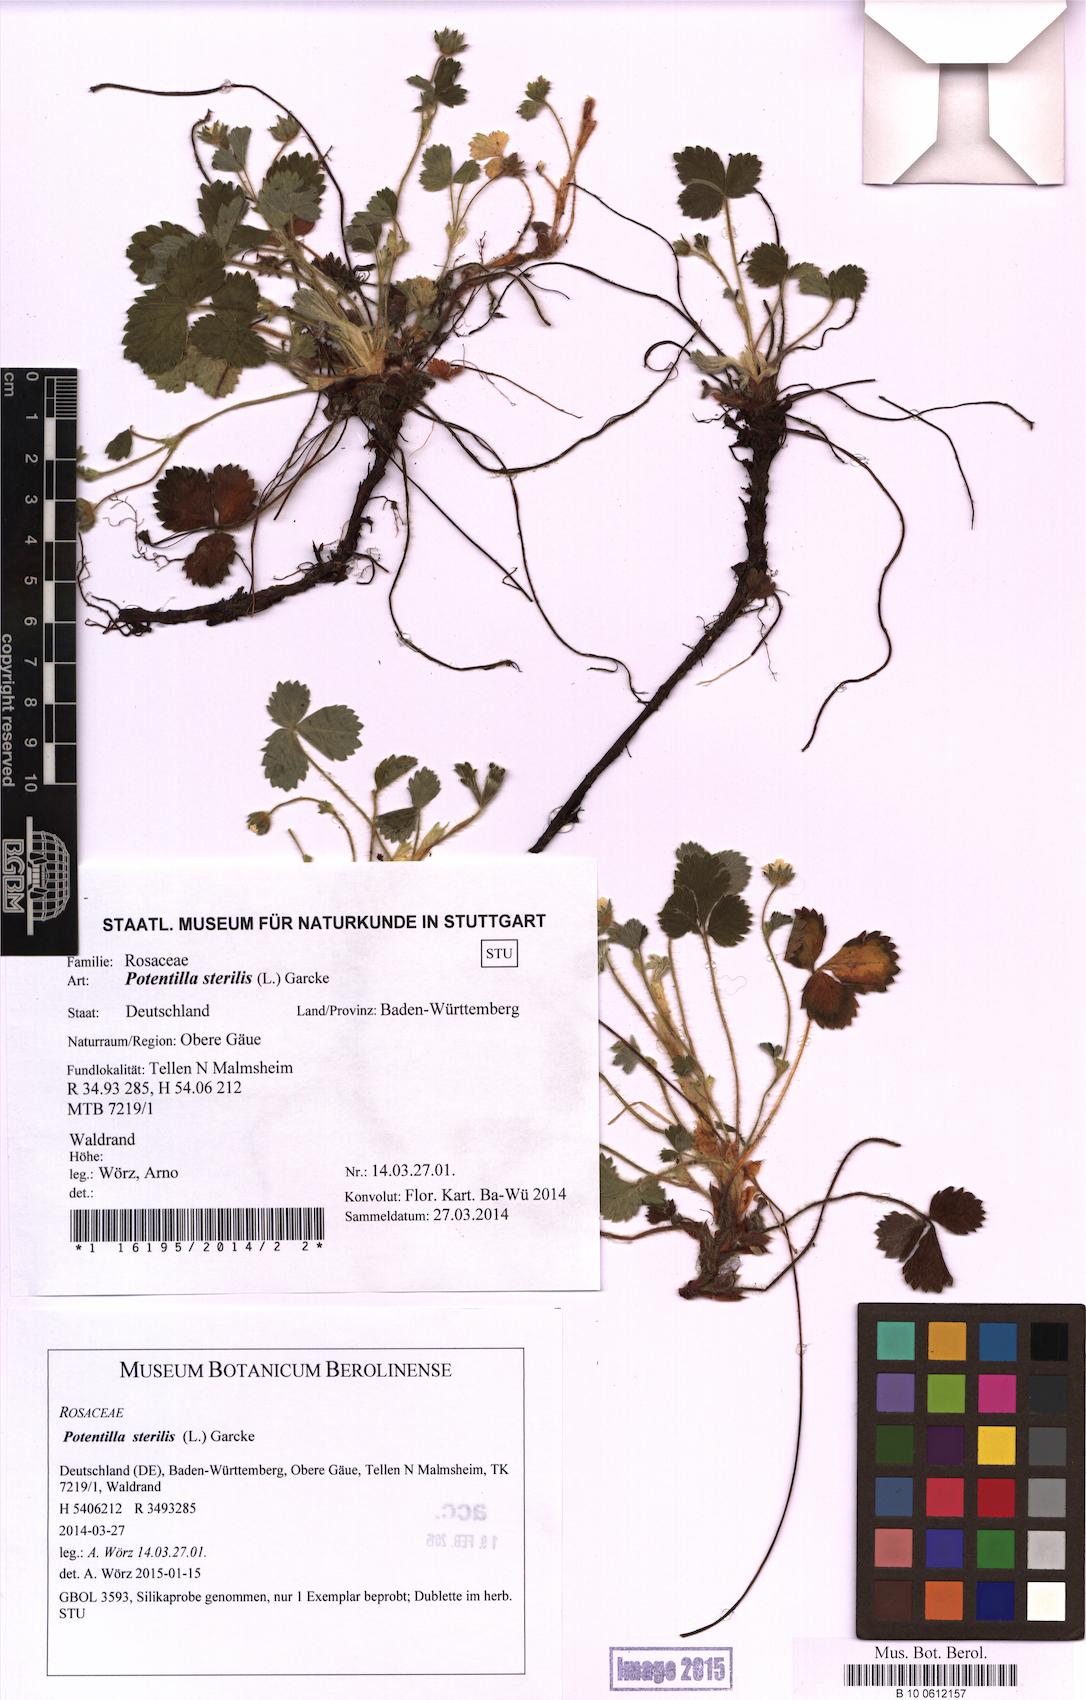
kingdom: Plantae
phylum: Tracheophyta
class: Magnoliopsida
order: Rosales
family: Rosaceae
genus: Potentilla
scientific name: Potentilla sterilis
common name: Barren strawberry
